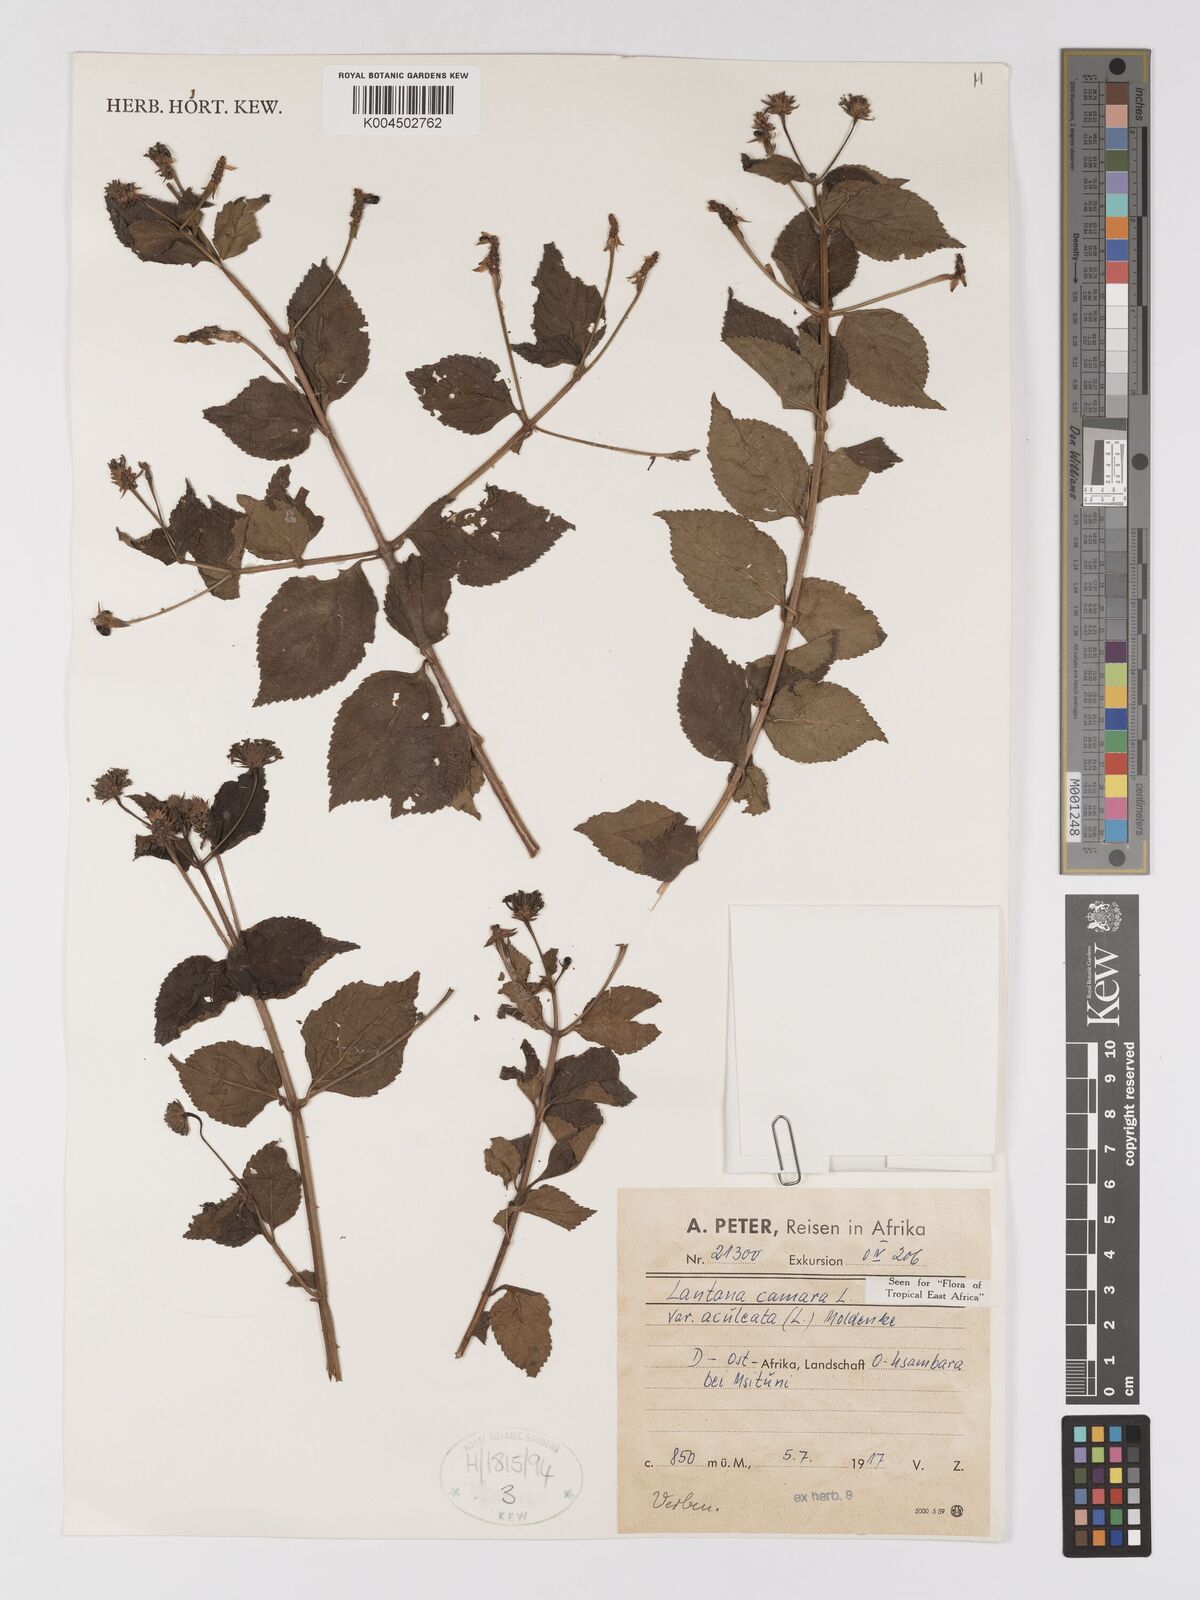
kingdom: Plantae
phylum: Tracheophyta
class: Magnoliopsida
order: Lamiales
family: Verbenaceae
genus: Lantana
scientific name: Lantana camara
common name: Lantana
